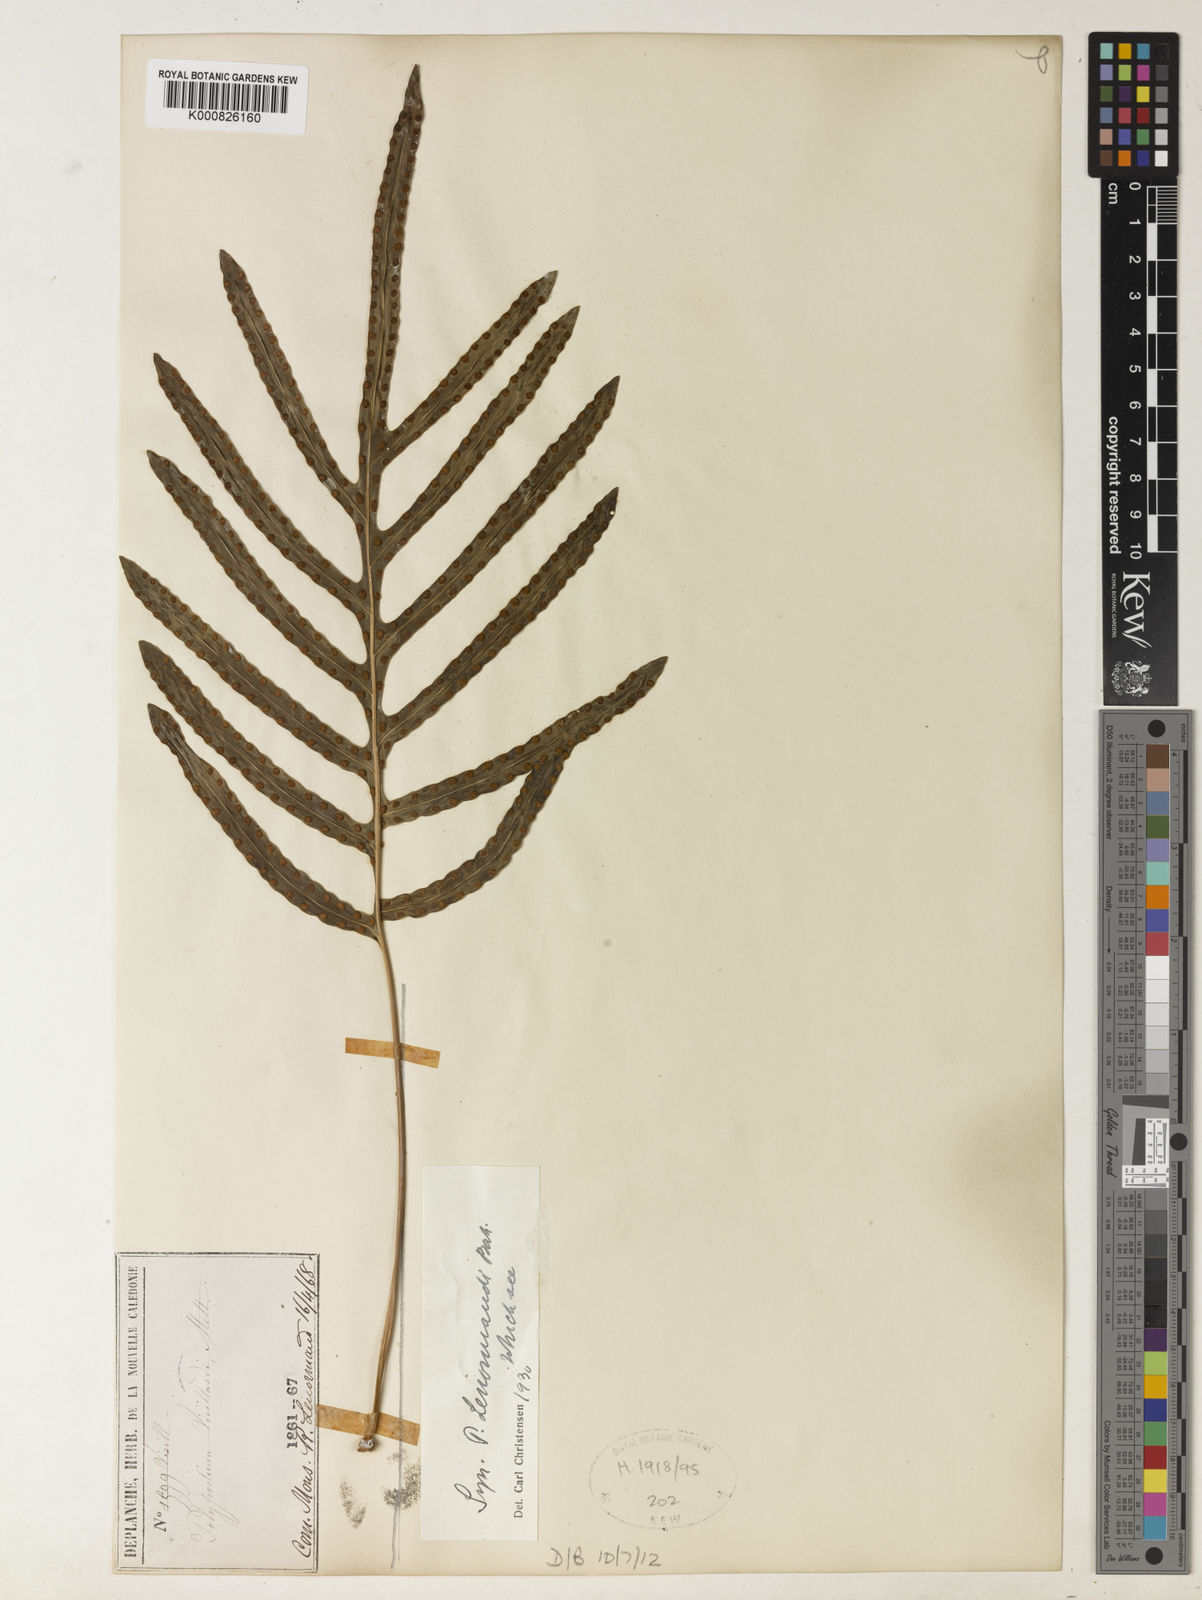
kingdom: Plantae
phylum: Tracheophyta
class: Polypodiopsida
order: Polypodiales
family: Polypodiaceae
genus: Lecanopteris
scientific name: Lecanopteris vieillardii
